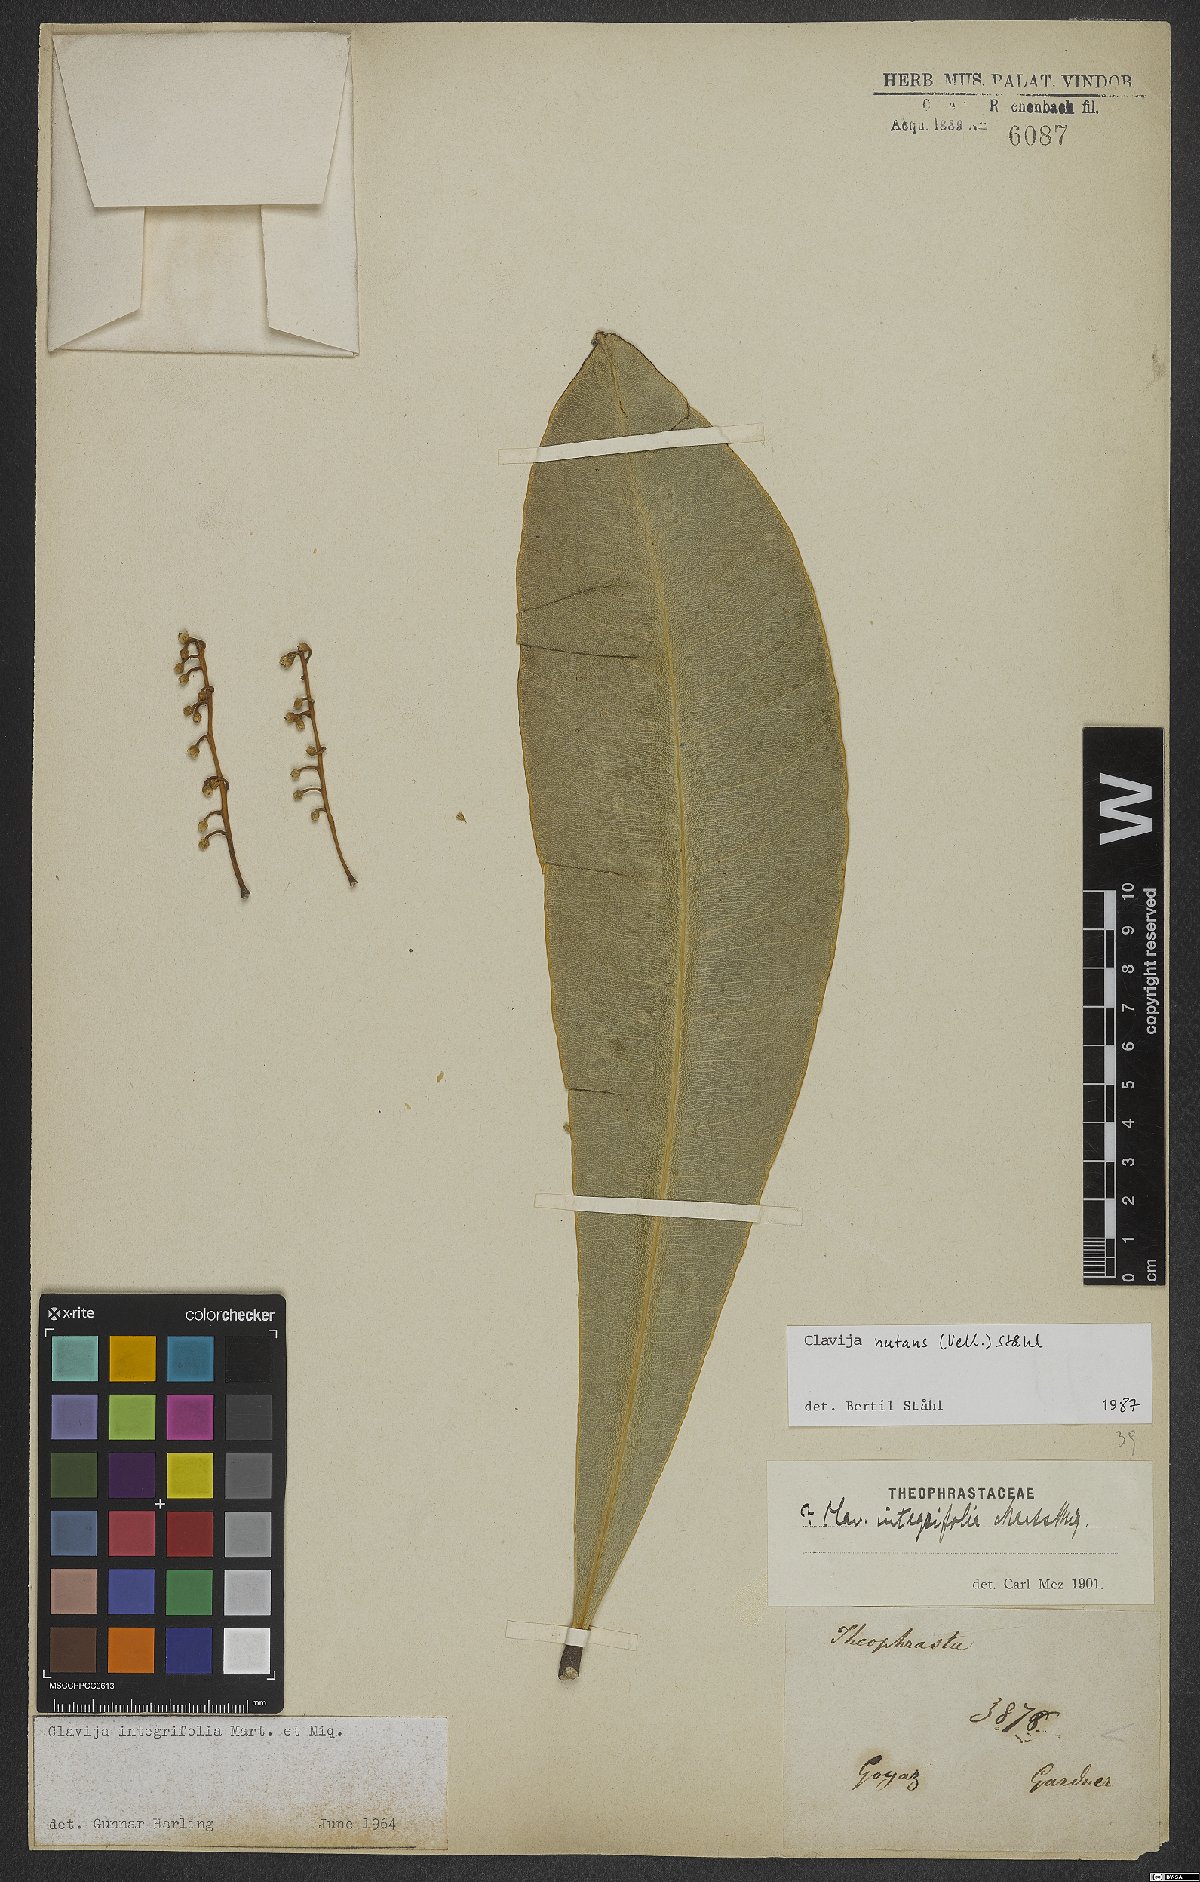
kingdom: Plantae
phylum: Tracheophyta
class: Magnoliopsida
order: Ericales
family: Primulaceae
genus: Clavija
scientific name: Clavija nutans
